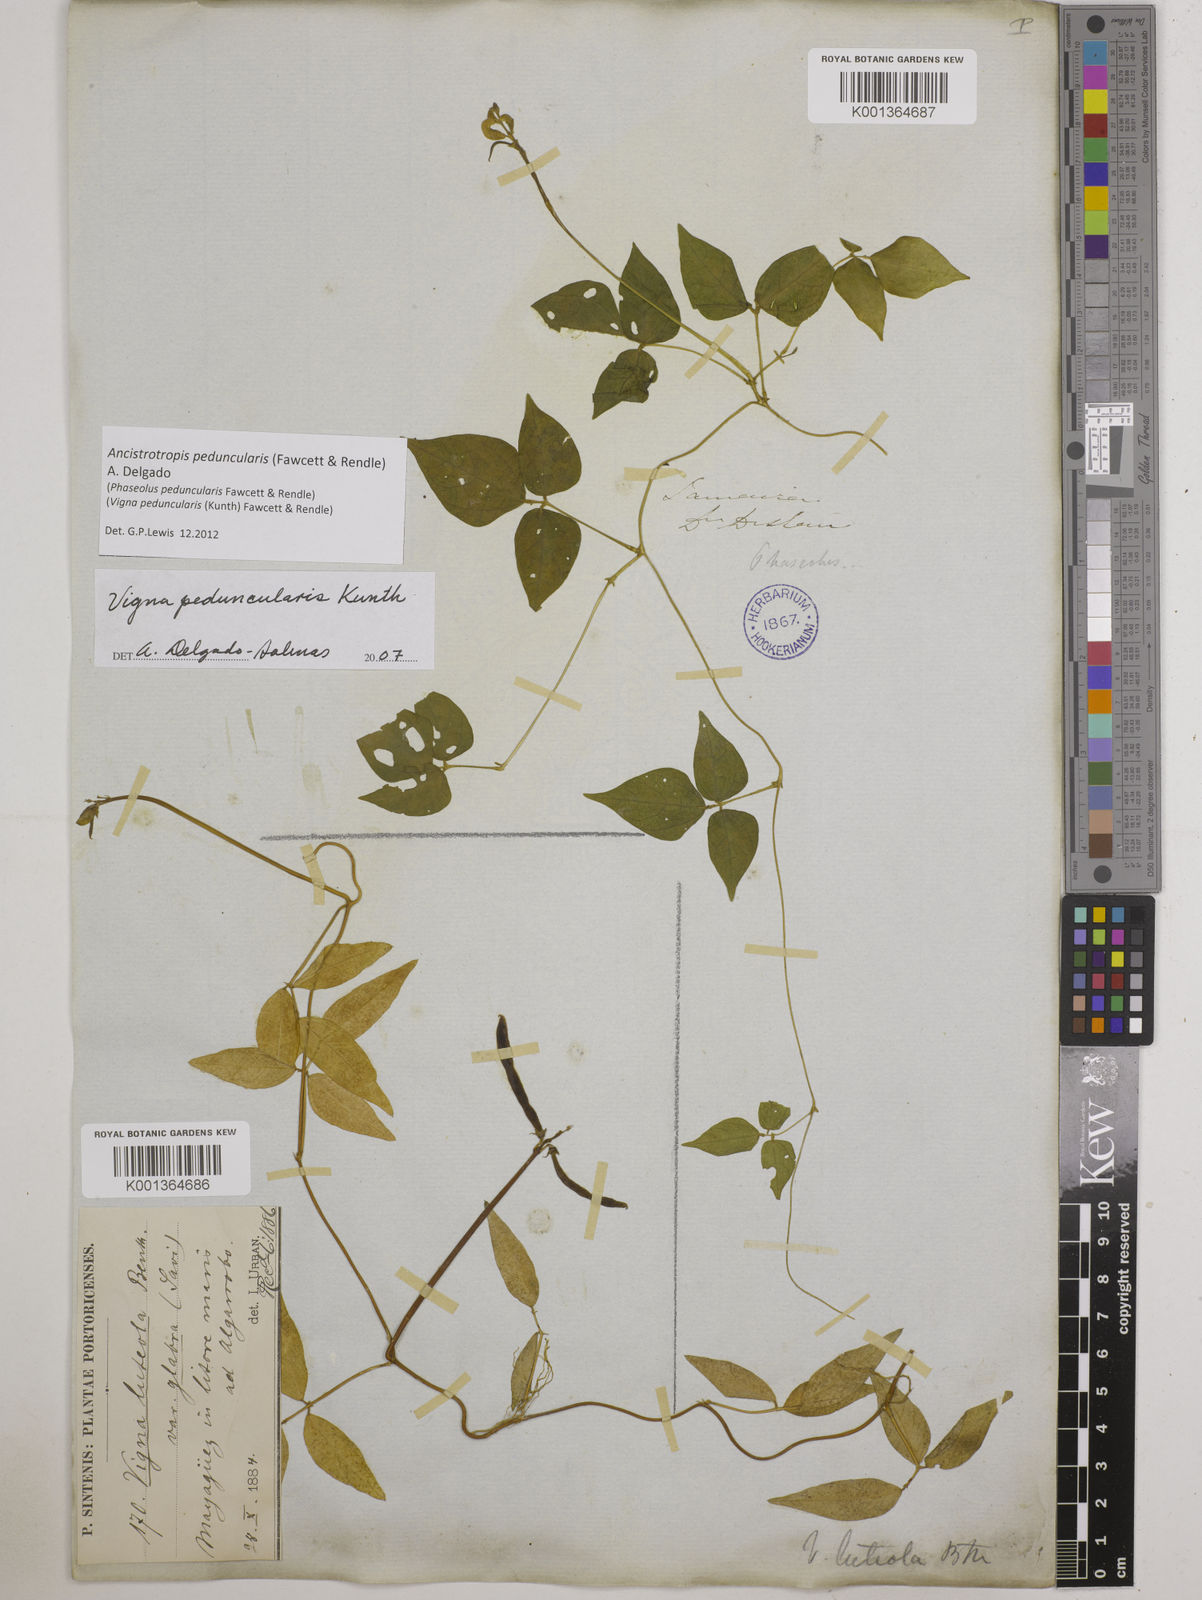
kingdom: Plantae
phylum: Tracheophyta
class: Magnoliopsida
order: Fabales
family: Fabaceae
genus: Ancistrotropis
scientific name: Ancistrotropis peduncularis
